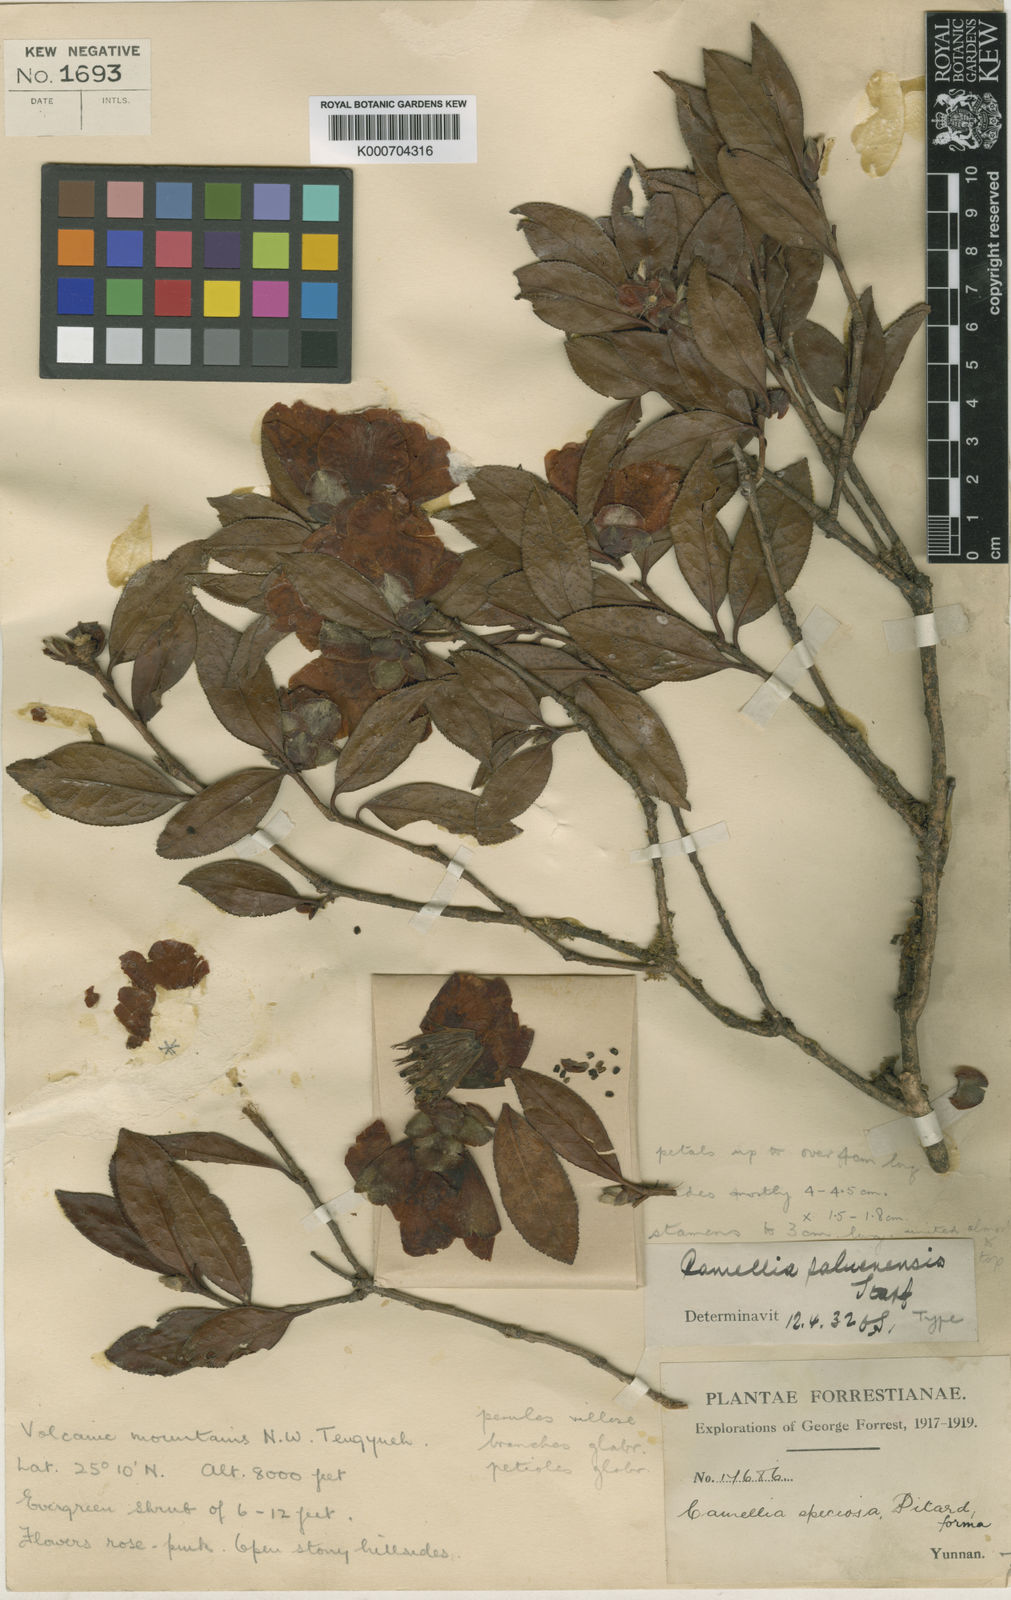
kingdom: Plantae
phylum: Tracheophyta
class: Magnoliopsida
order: Ericales
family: Theaceae
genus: Camellia
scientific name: Camellia
